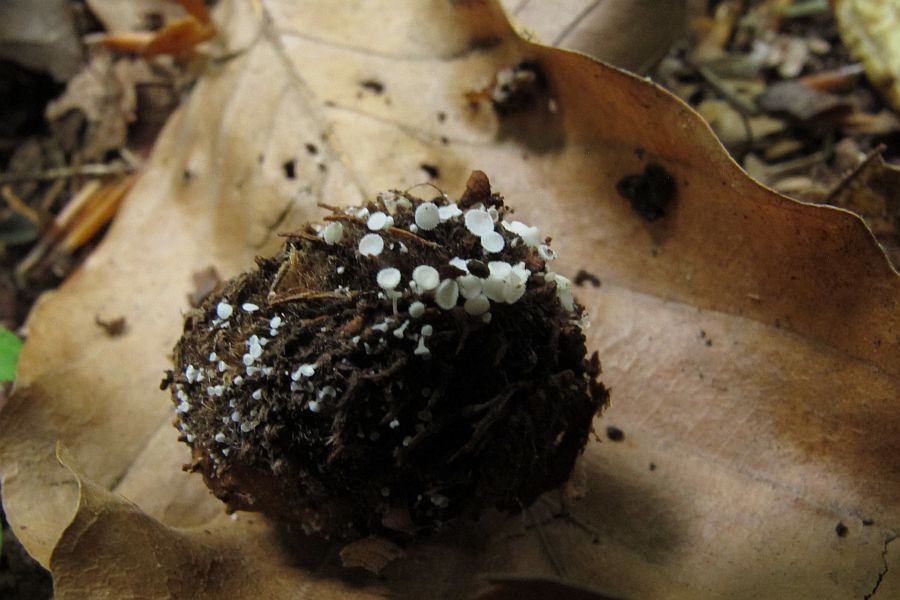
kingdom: Fungi
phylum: Ascomycota
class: Leotiomycetes
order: Helotiales
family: Lachnaceae
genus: Lachnum
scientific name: Lachnum virgineum
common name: jomfru-frynseskive
